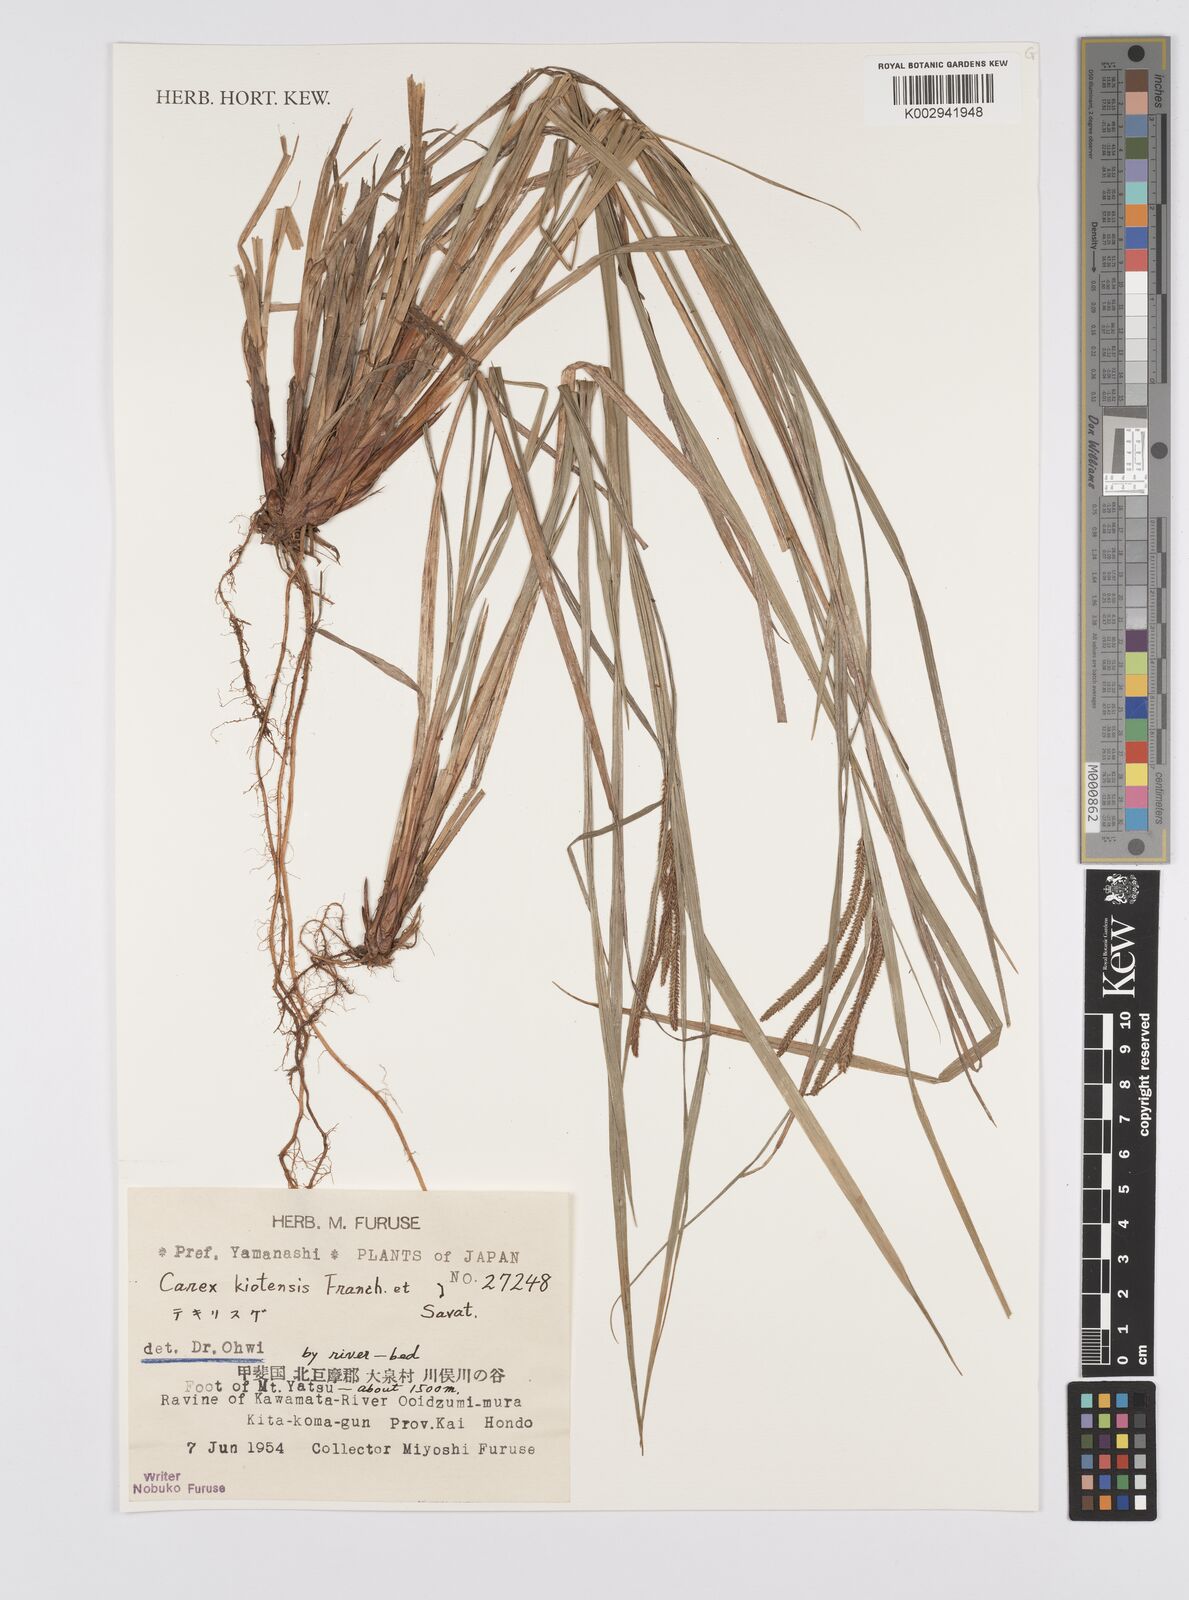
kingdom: Plantae
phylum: Tracheophyta
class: Liliopsida
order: Poales
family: Cyperaceae
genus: Carex
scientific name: Carex nemostachys
